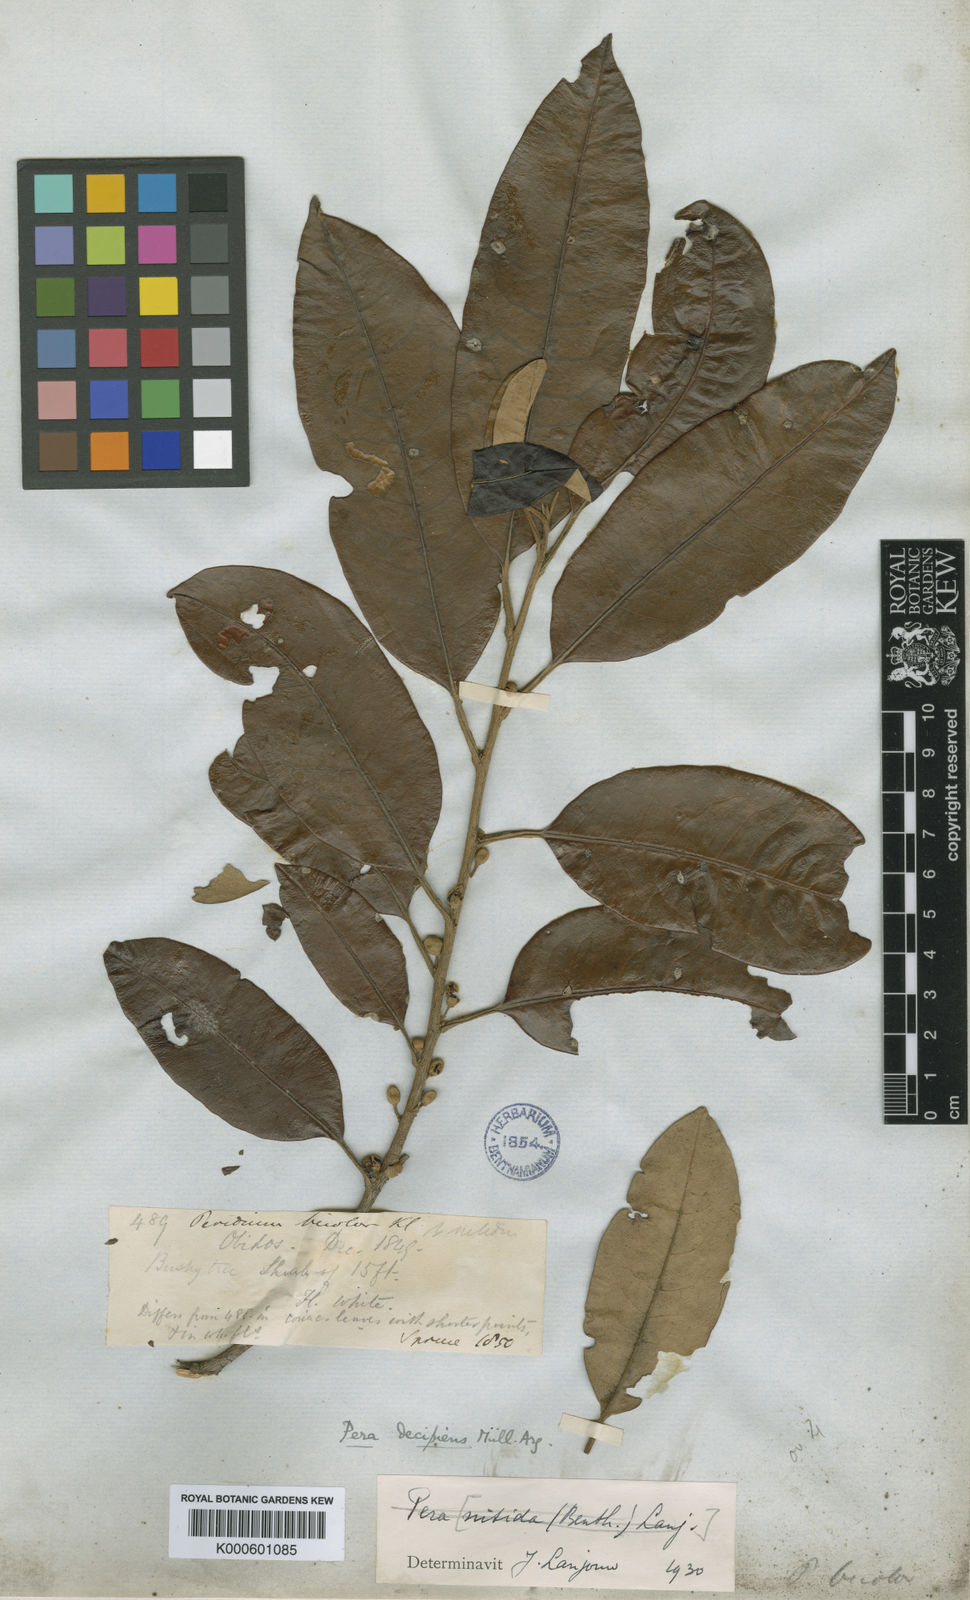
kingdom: Plantae
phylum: Tracheophyta
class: Magnoliopsida
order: Malpighiales
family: Peraceae
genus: Pera
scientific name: Pera
